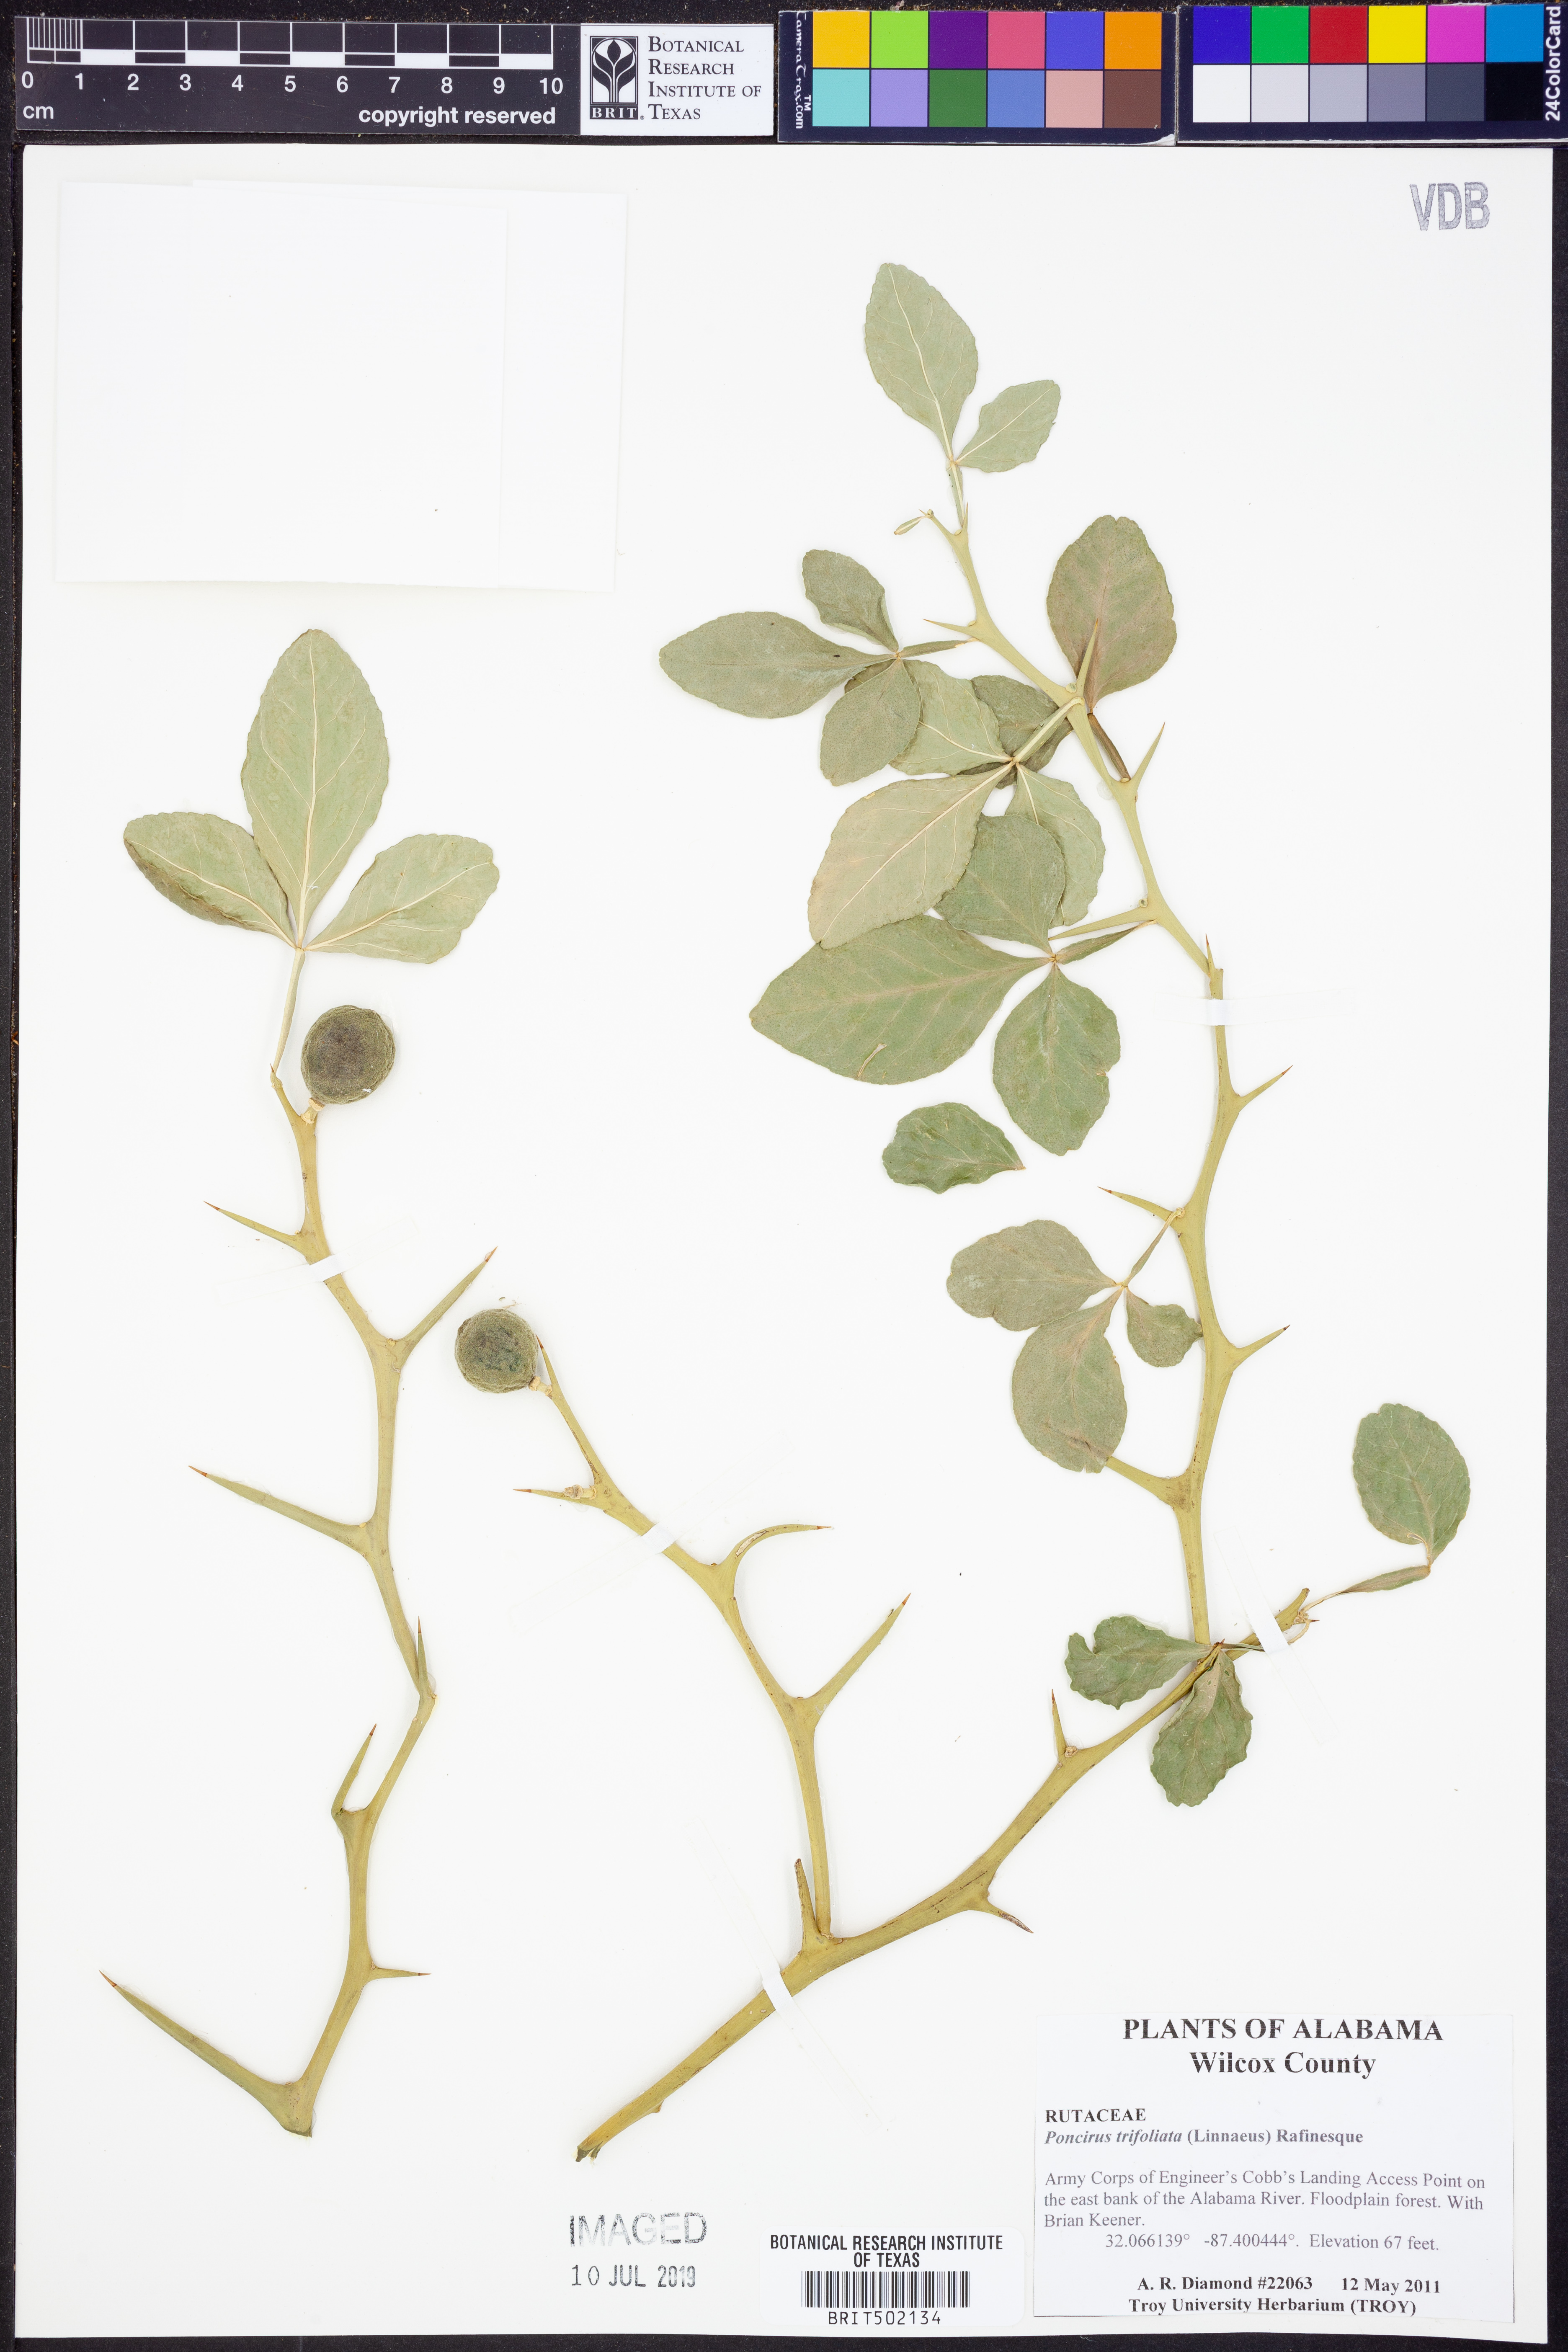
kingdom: Plantae
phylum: Tracheophyta
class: Magnoliopsida
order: Sapindales
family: Rutaceae
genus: Citrus
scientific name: Citrus trifoliata
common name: Japanese bitter-orange
